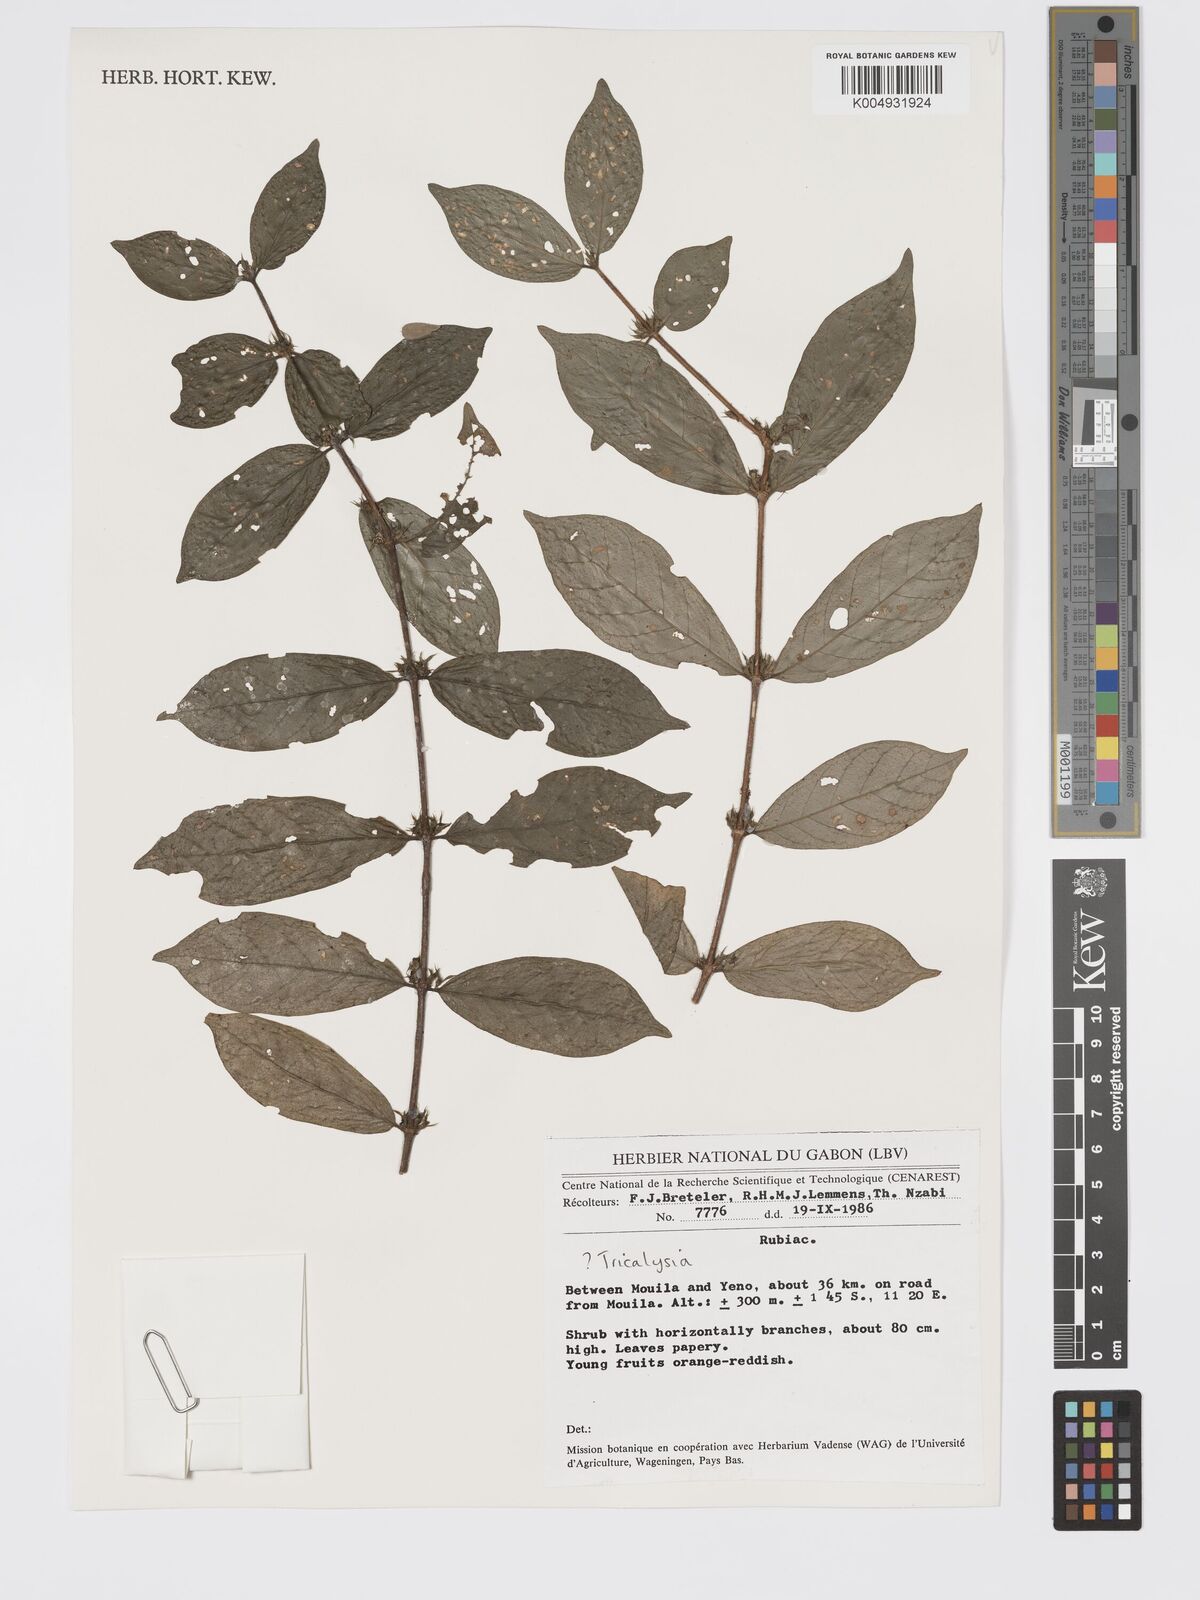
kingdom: Plantae
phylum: Tracheophyta
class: Magnoliopsida
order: Gentianales
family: Rubiaceae
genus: Tricalysia
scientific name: Tricalysia
